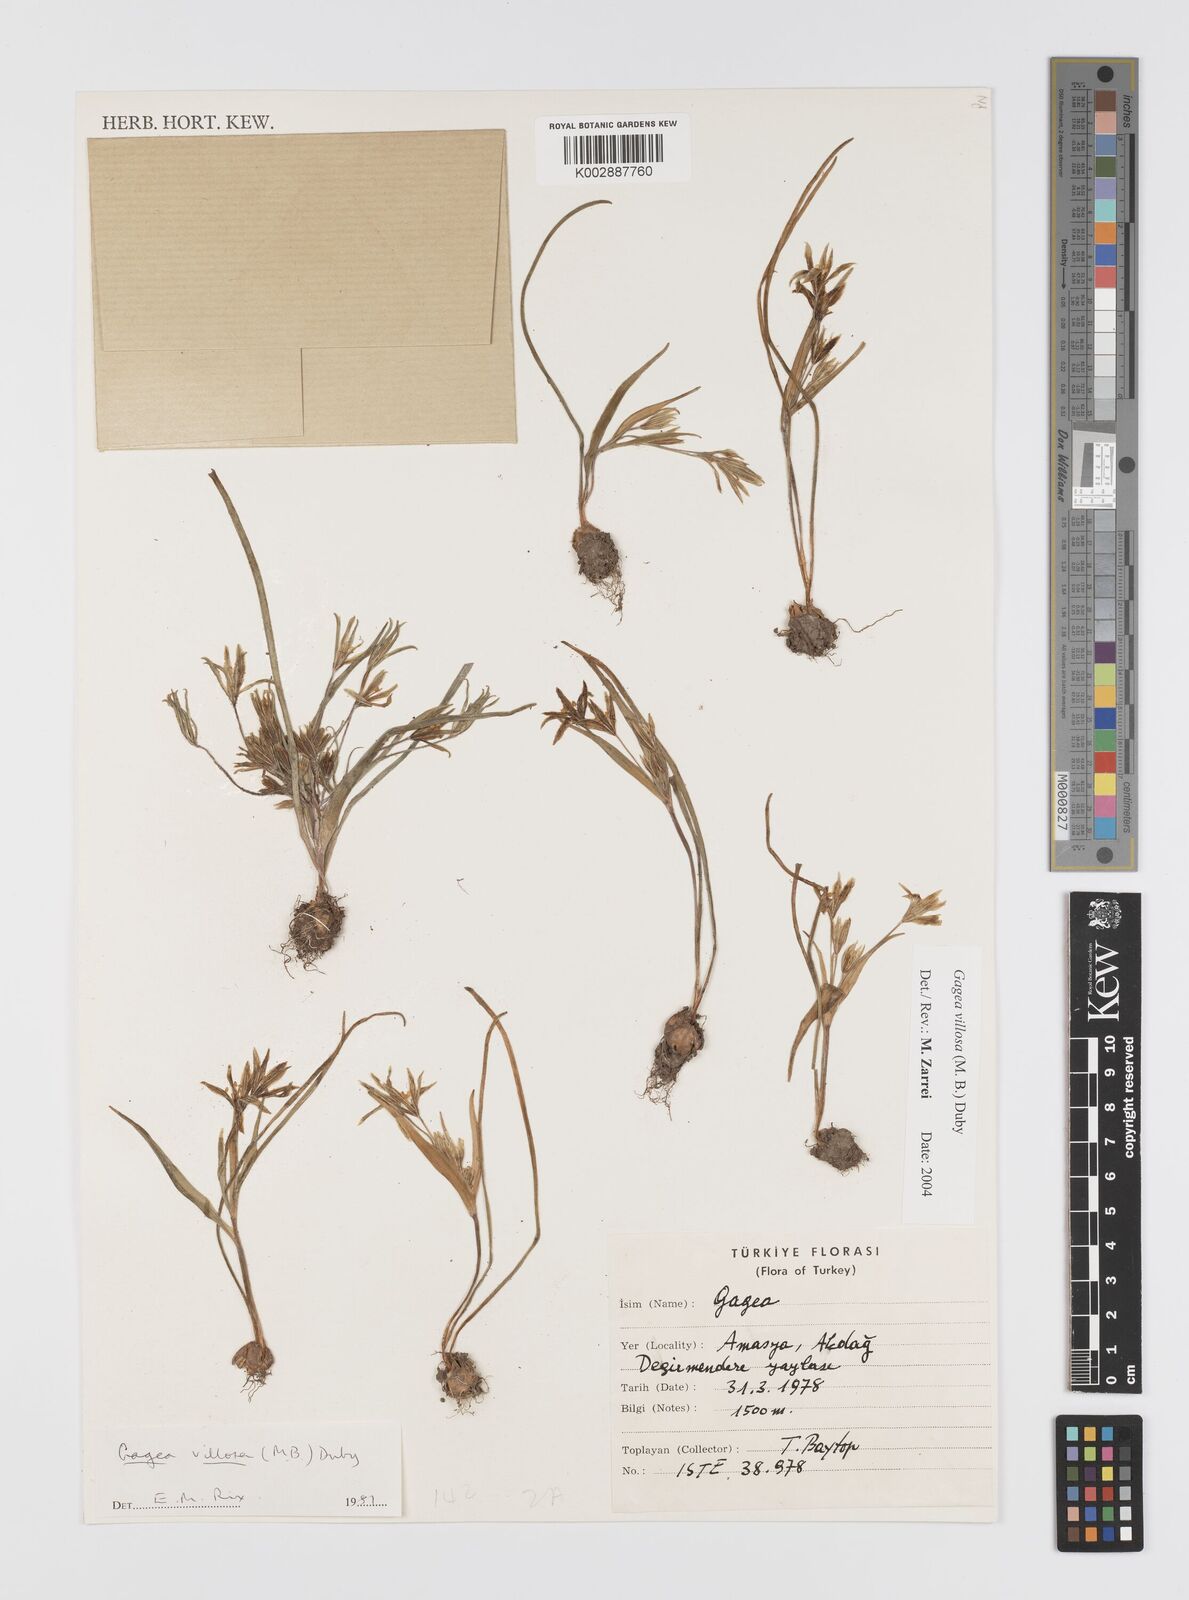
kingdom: Plantae
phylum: Tracheophyta
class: Liliopsida
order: Liliales
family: Liliaceae
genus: Gagea
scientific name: Gagea villosa
